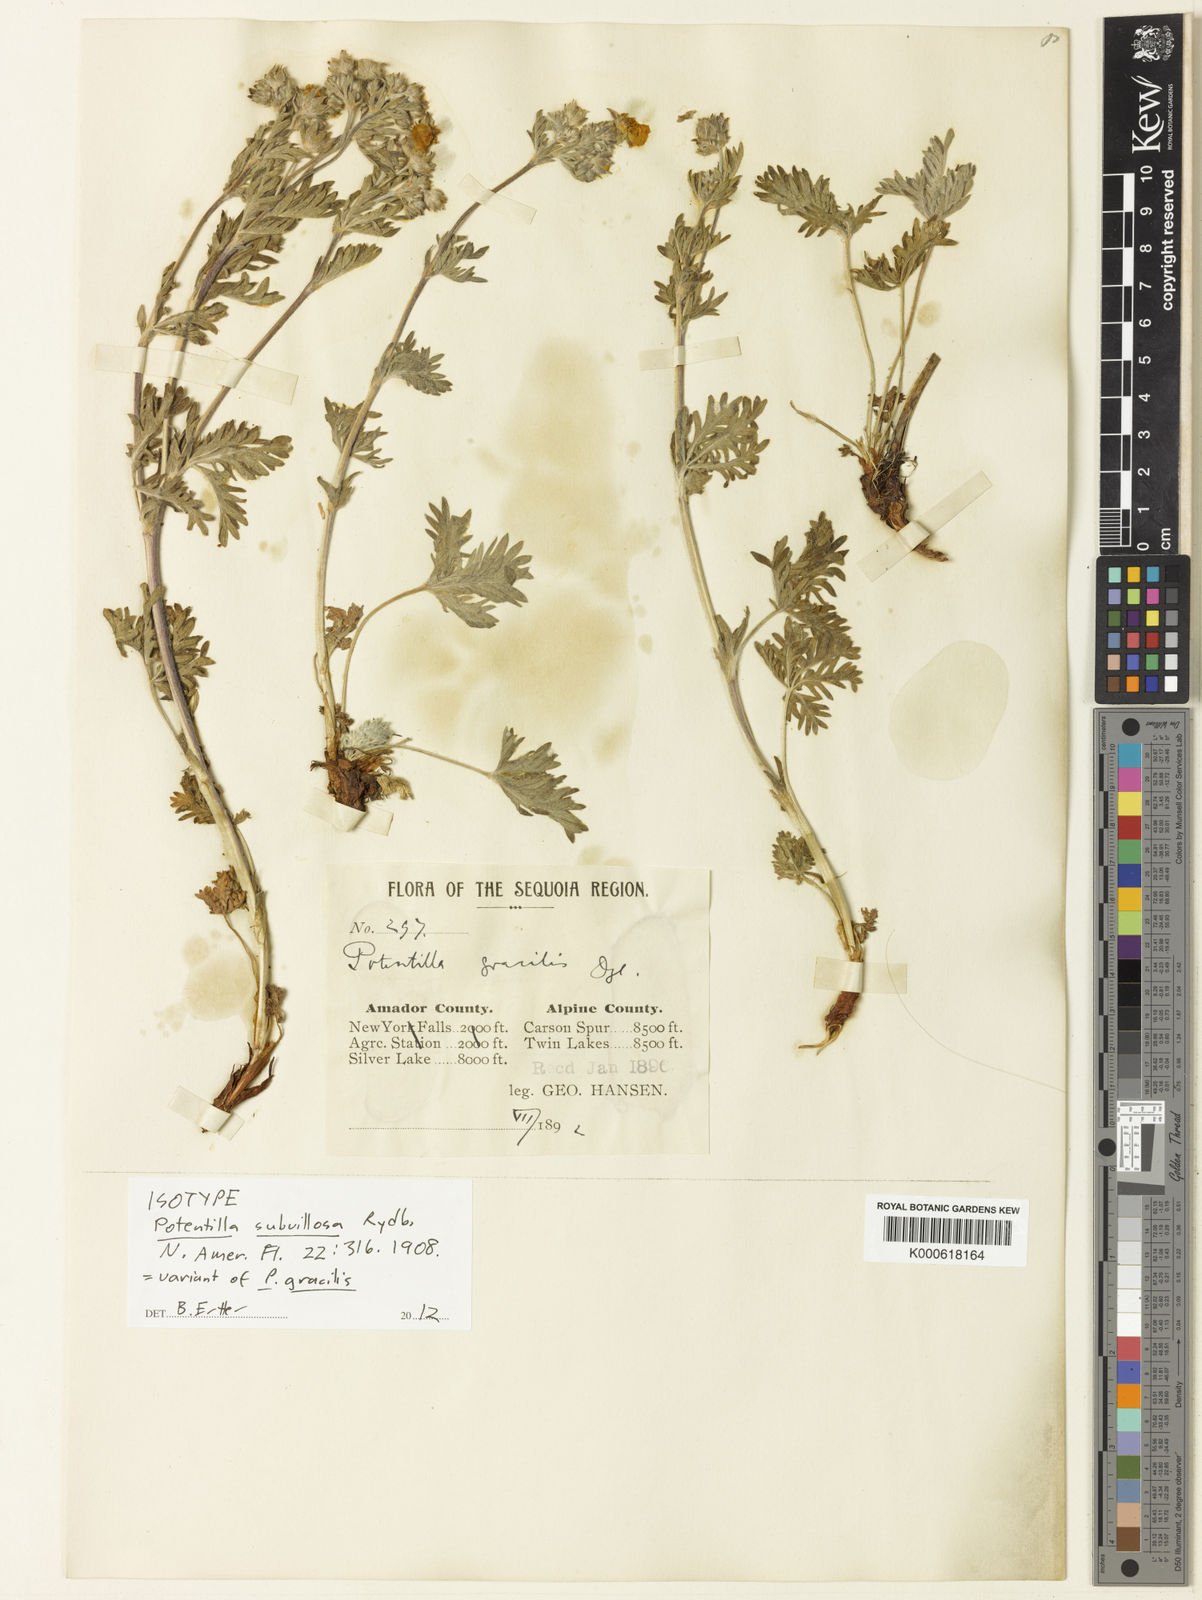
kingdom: Plantae
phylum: Tracheophyta
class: Magnoliopsida
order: Rosales
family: Rosaceae
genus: Potentilla
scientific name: Potentilla gracilis
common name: Graceful cinquefoil
